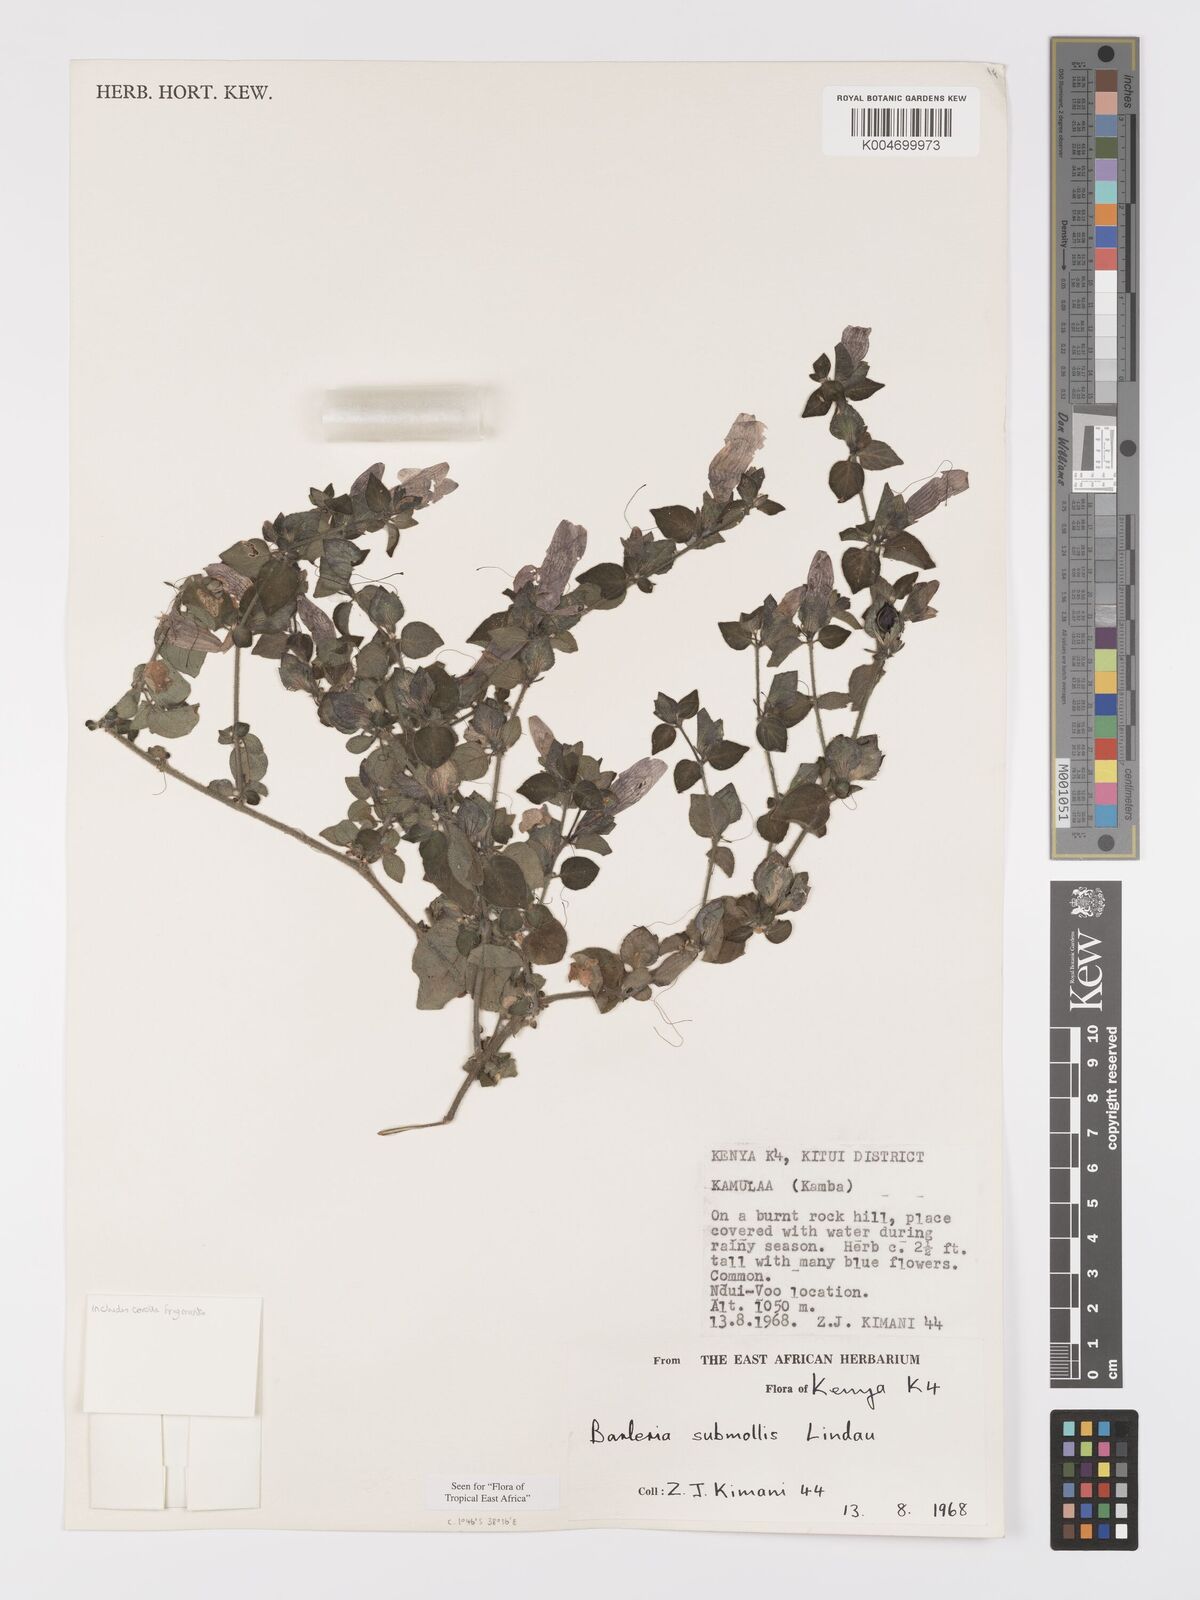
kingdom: Plantae
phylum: Tracheophyta
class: Magnoliopsida
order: Lamiales
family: Acanthaceae
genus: Barleria
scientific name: Barleria submollis
